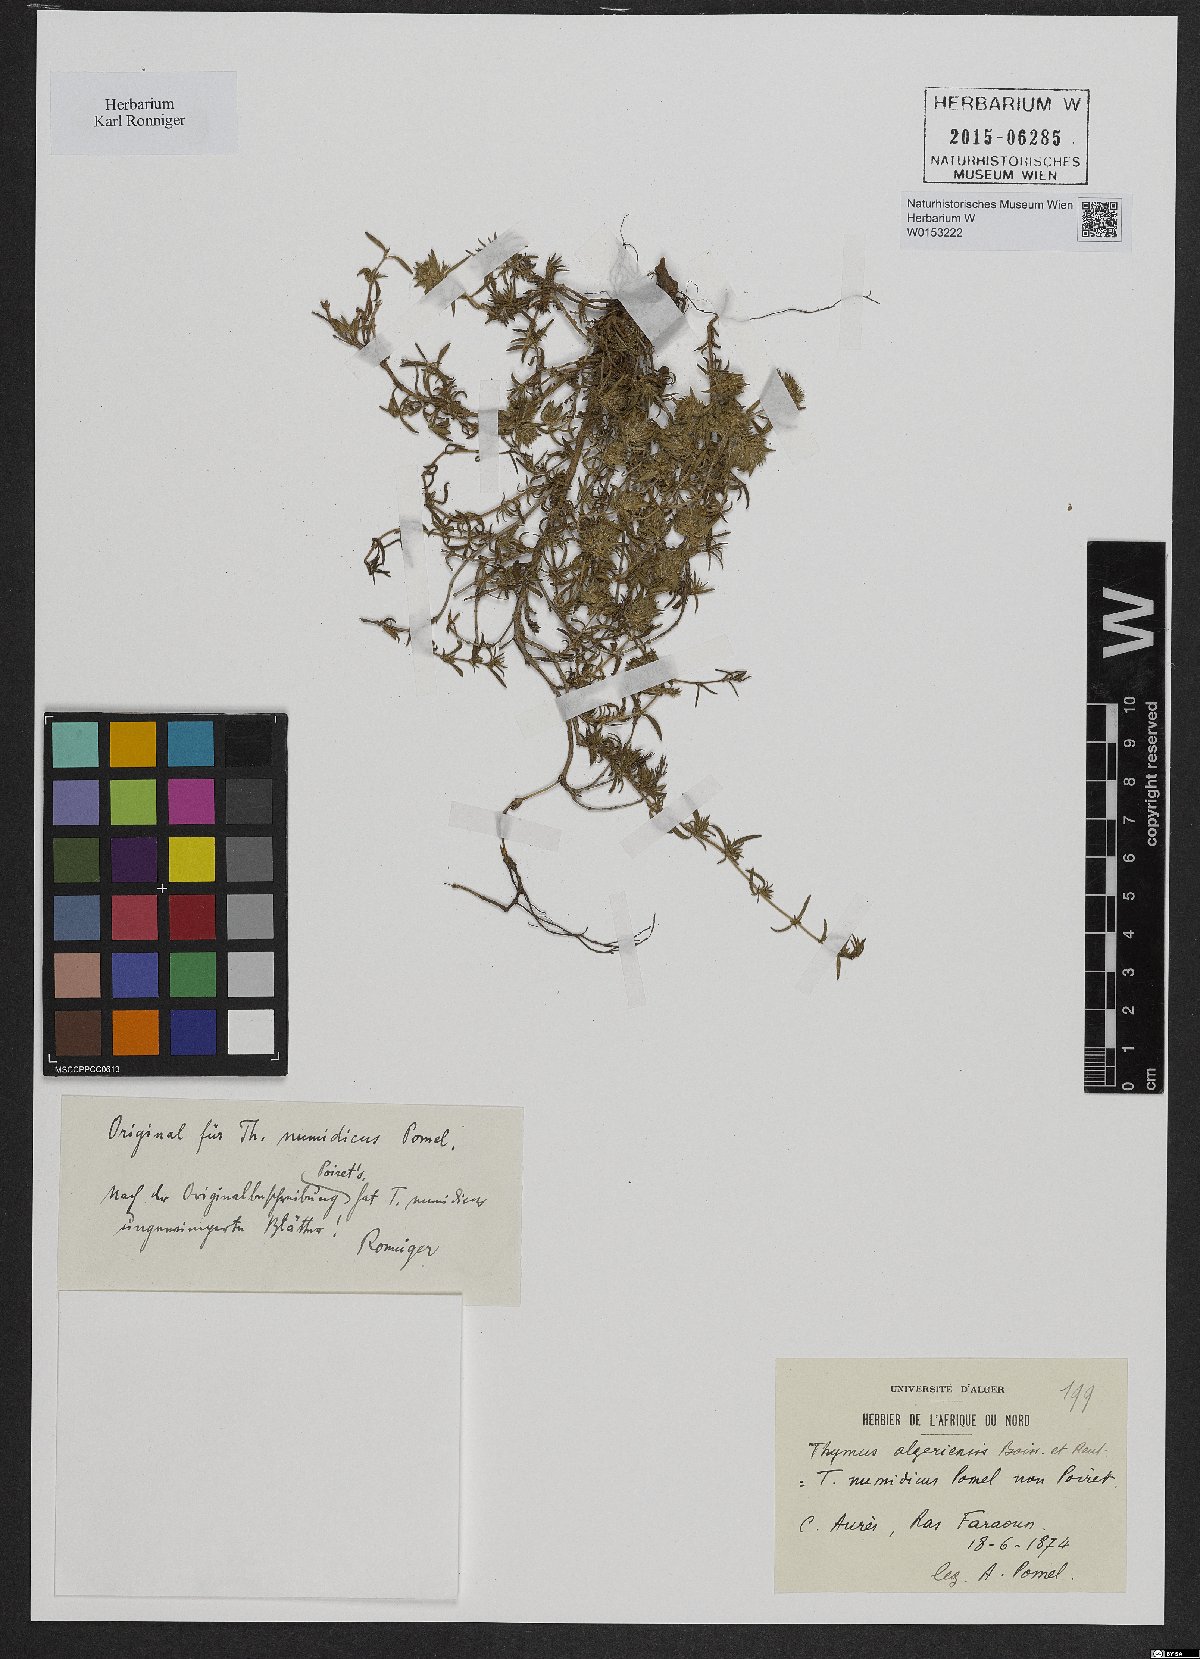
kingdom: Plantae
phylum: Tracheophyta
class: Magnoliopsida
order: Lamiales
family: Lamiaceae
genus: Thymus
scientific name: Thymus algeriensis
